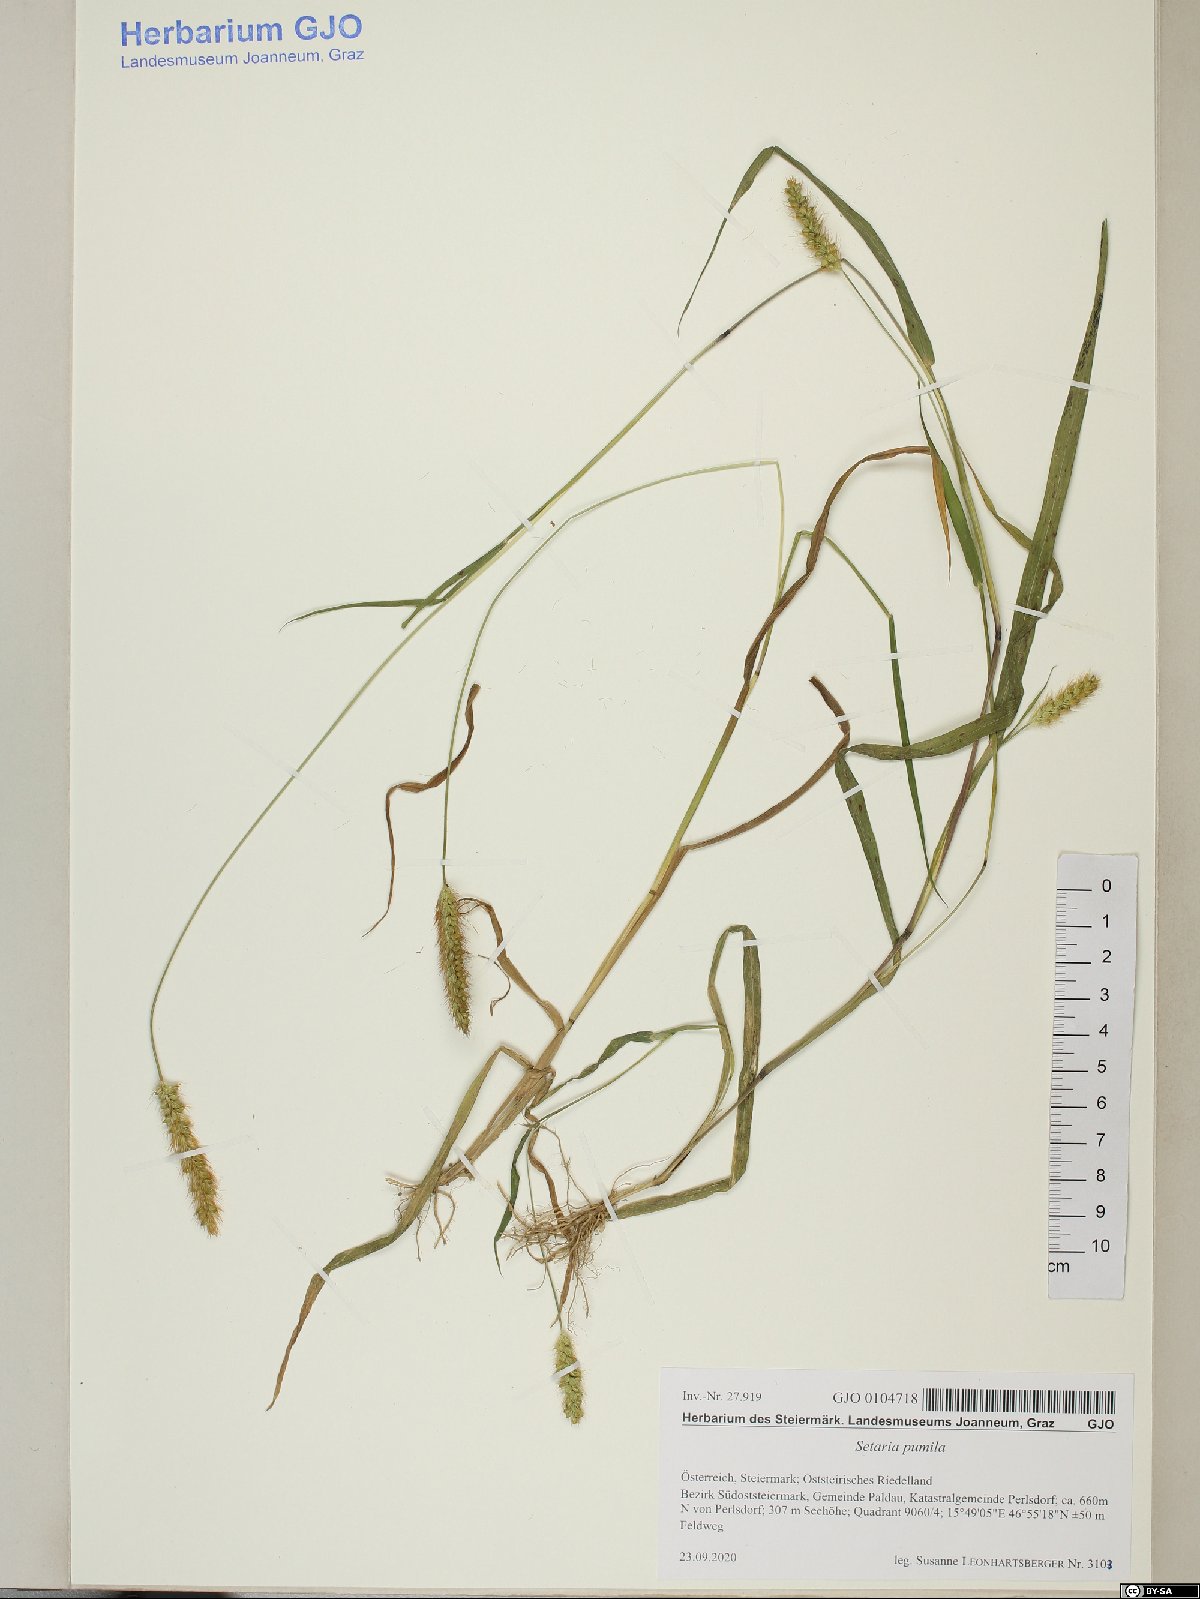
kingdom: Plantae
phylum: Tracheophyta
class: Liliopsida
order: Poales
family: Poaceae
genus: Setaria
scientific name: Setaria pumila
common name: Yellow bristle-grass
